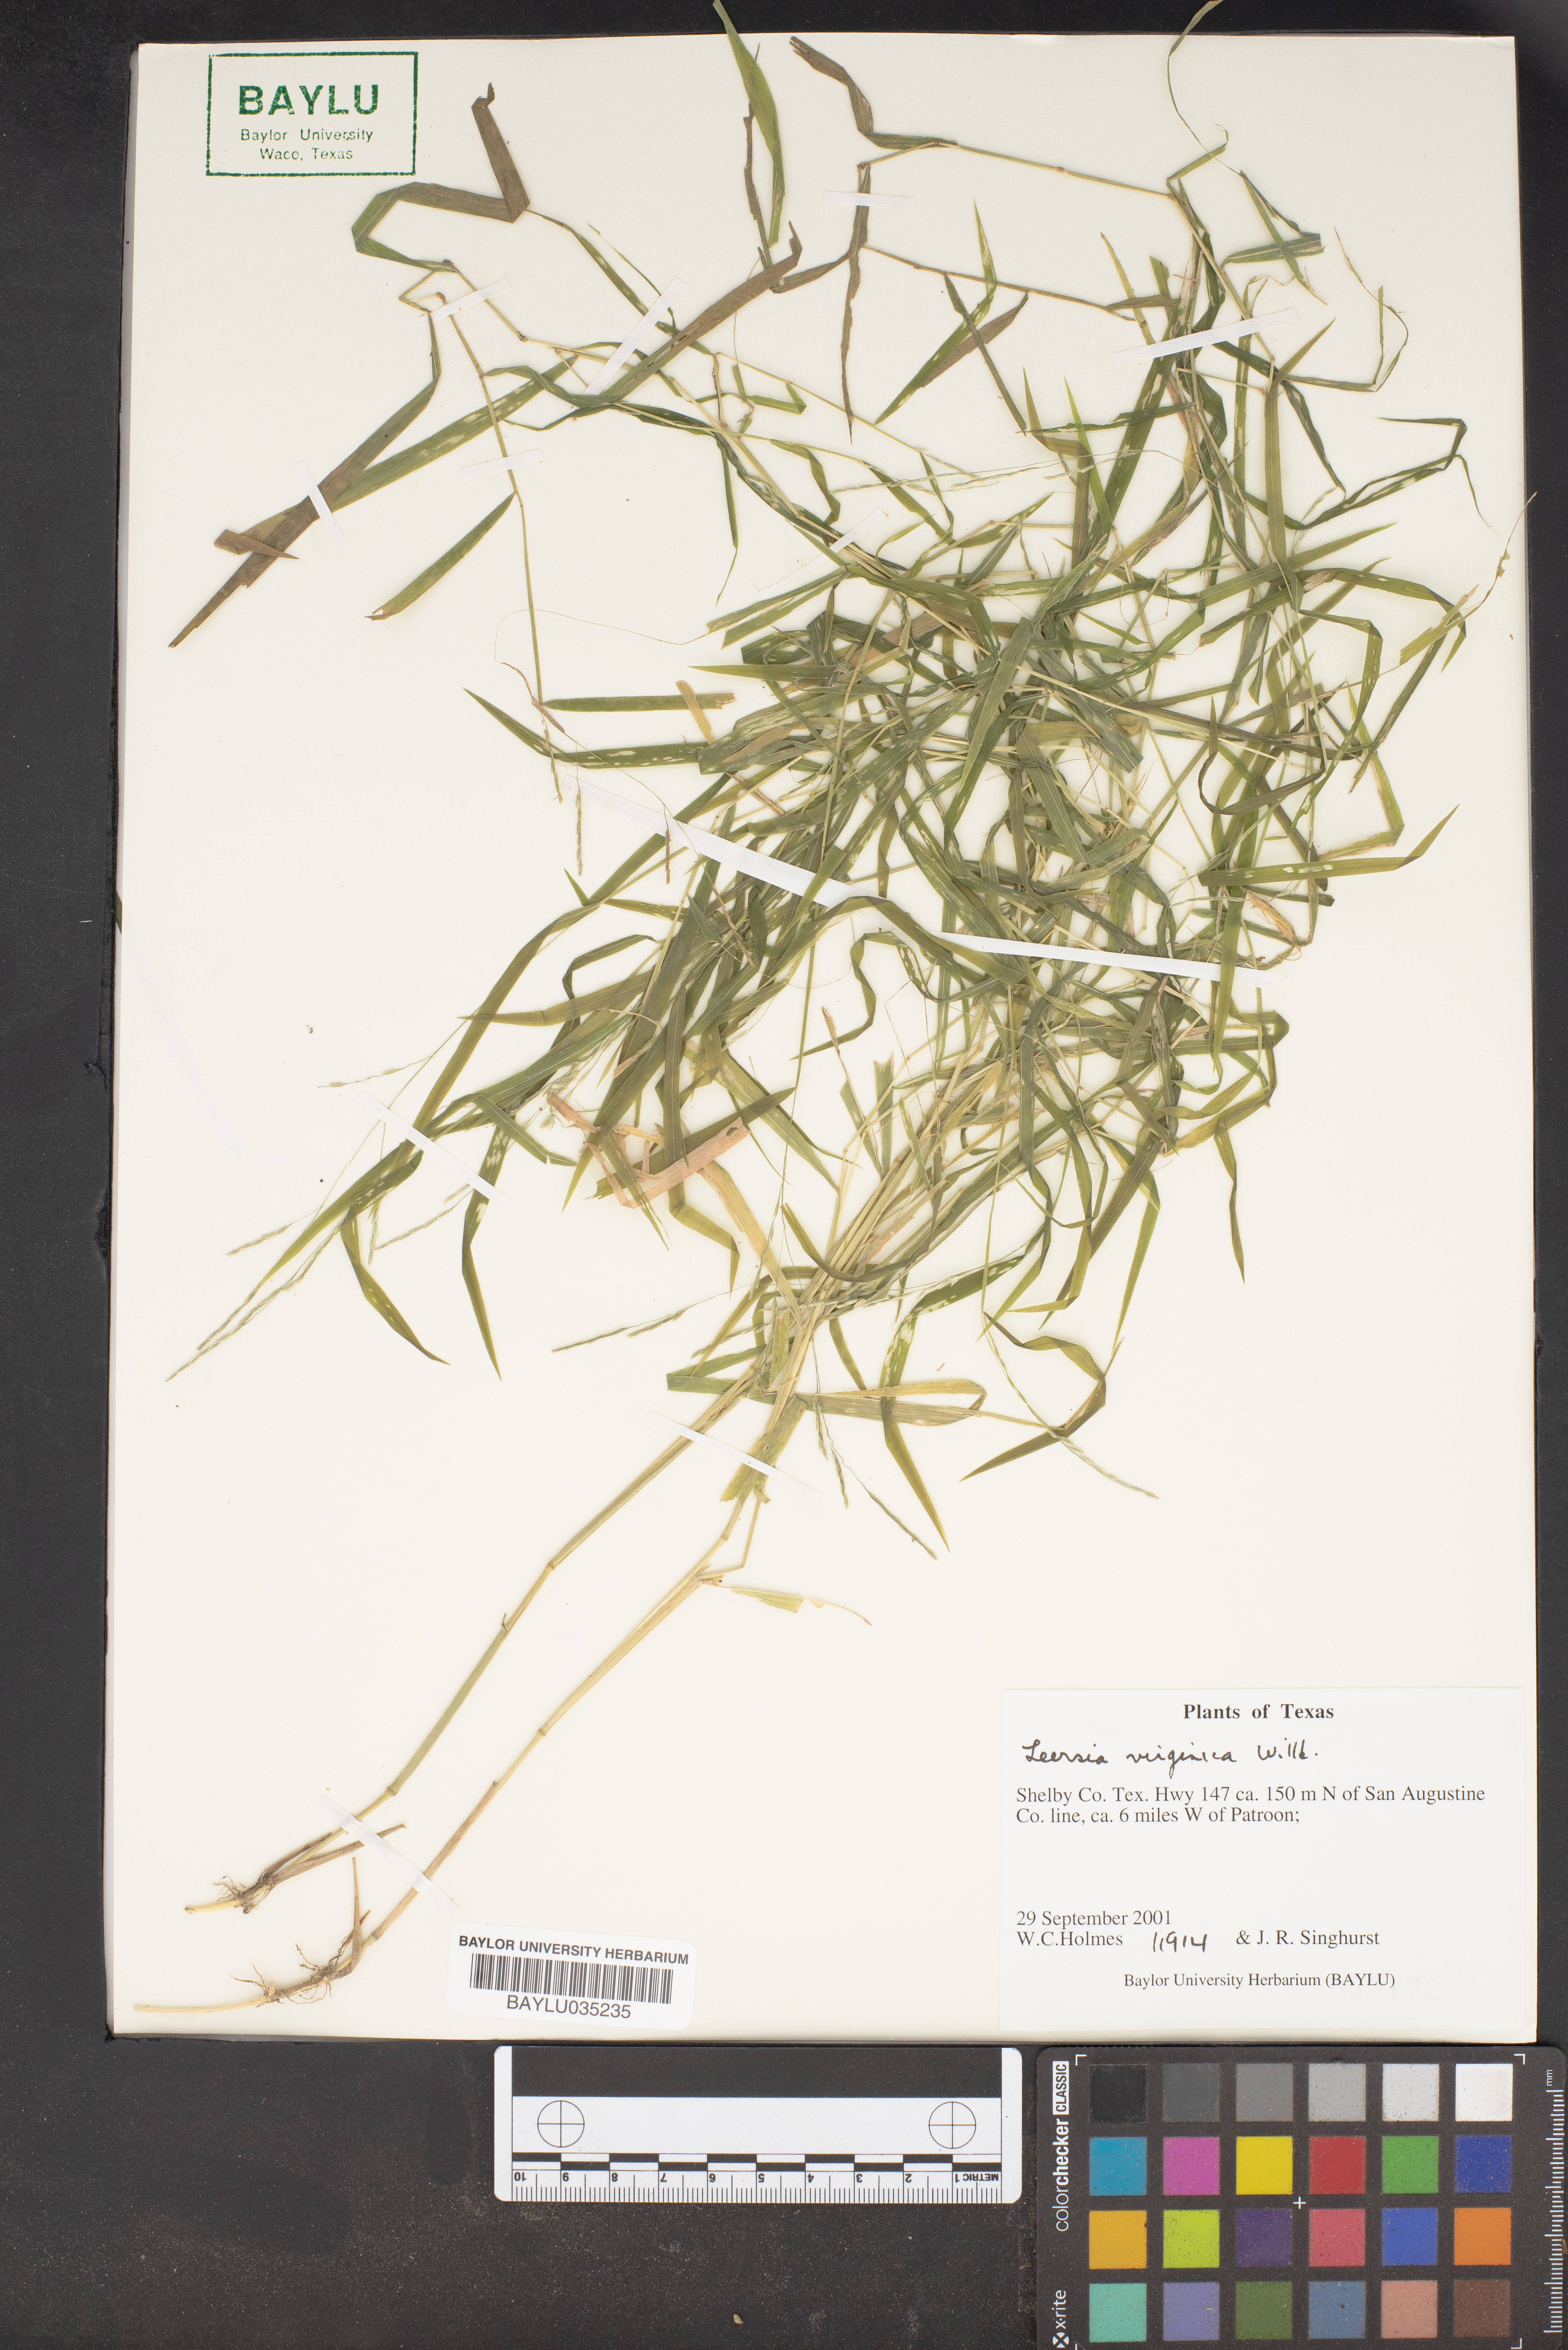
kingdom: Plantae
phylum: Tracheophyta
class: Liliopsida
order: Poales
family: Poaceae
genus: Leersia
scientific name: Leersia virginica
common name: White cutgrass
